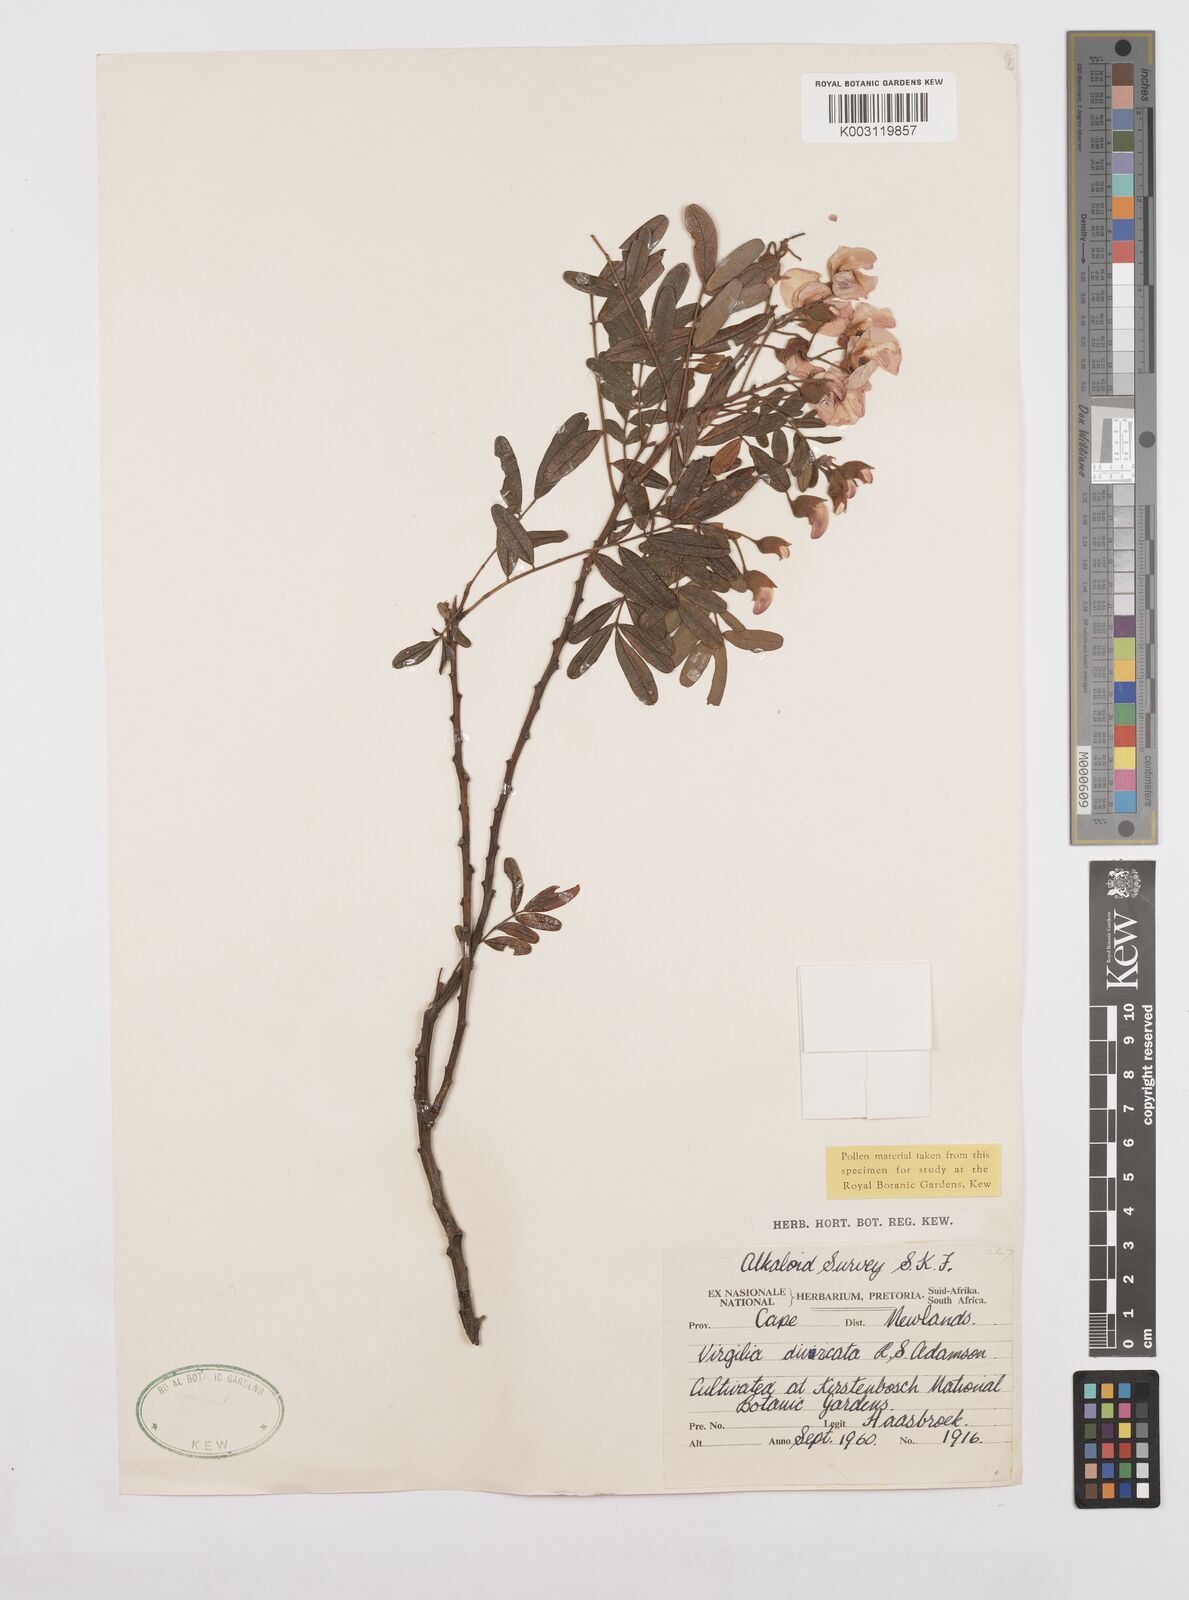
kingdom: Plantae
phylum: Tracheophyta
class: Magnoliopsida
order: Fabales
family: Fabaceae
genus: Virgilia
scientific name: Virgilia divaricata
